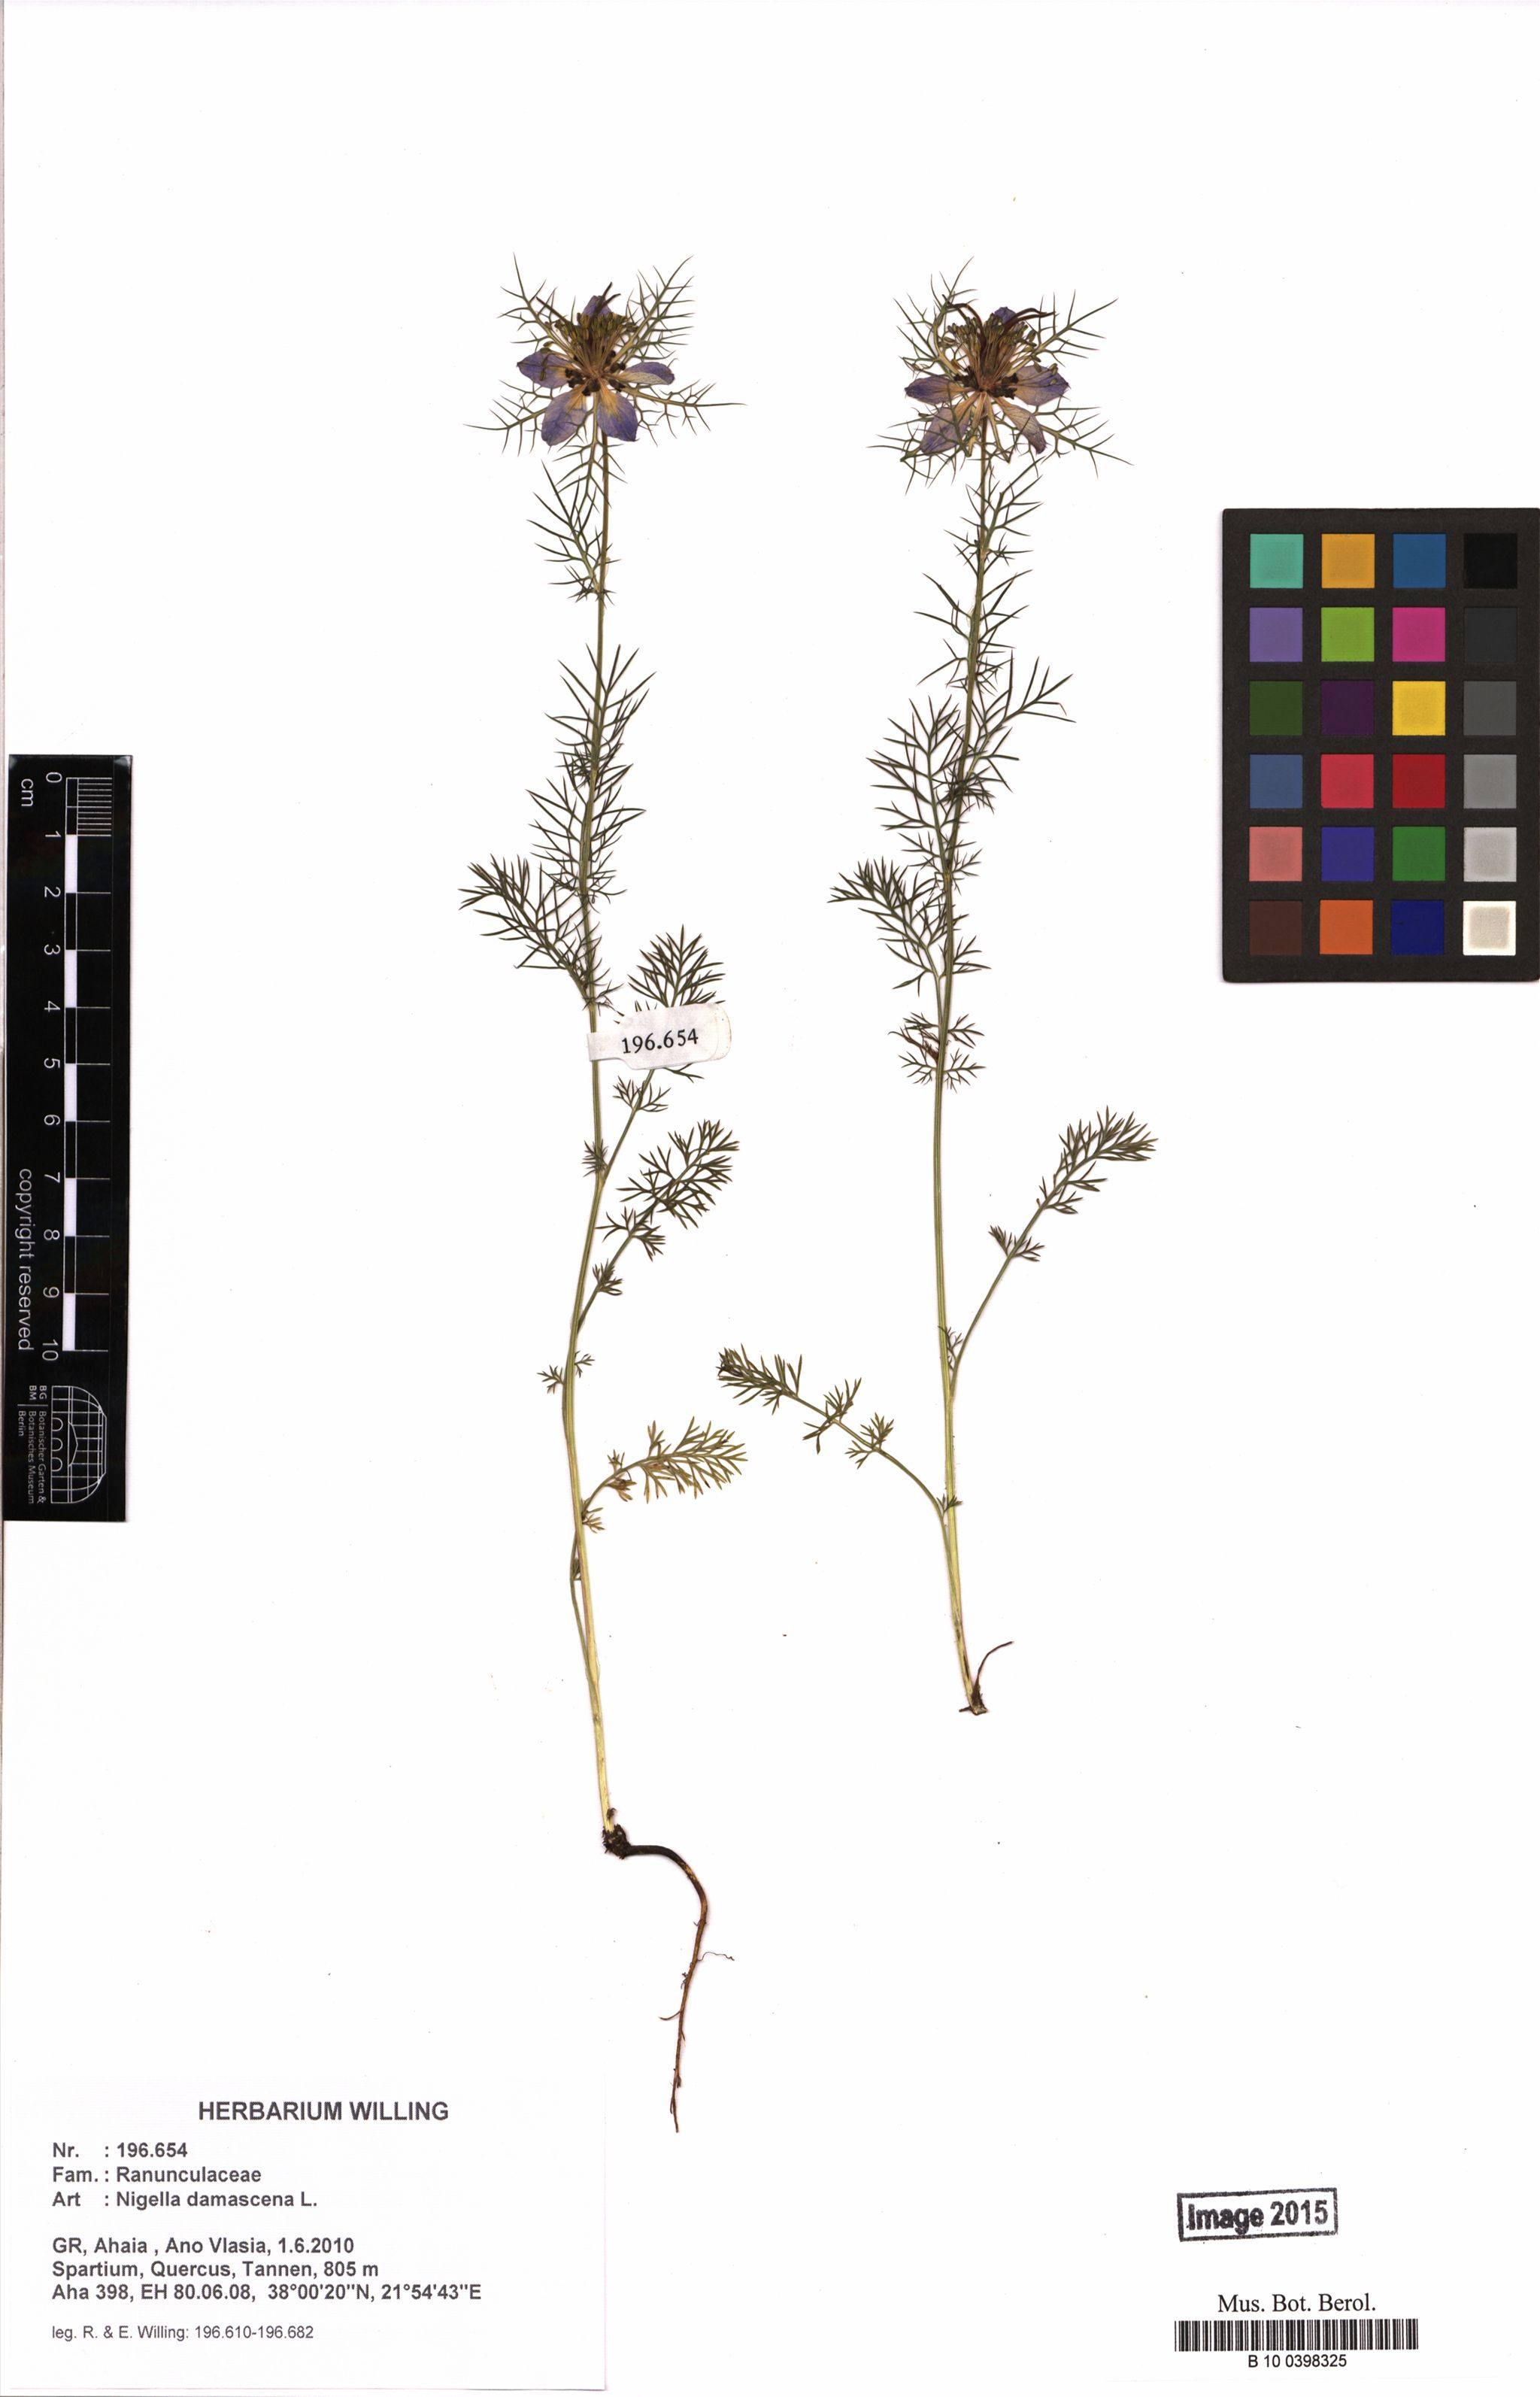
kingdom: Plantae
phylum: Tracheophyta
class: Magnoliopsida
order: Ranunculales
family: Ranunculaceae
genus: Nigella
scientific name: Nigella damascena
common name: Love-in-a-mist
